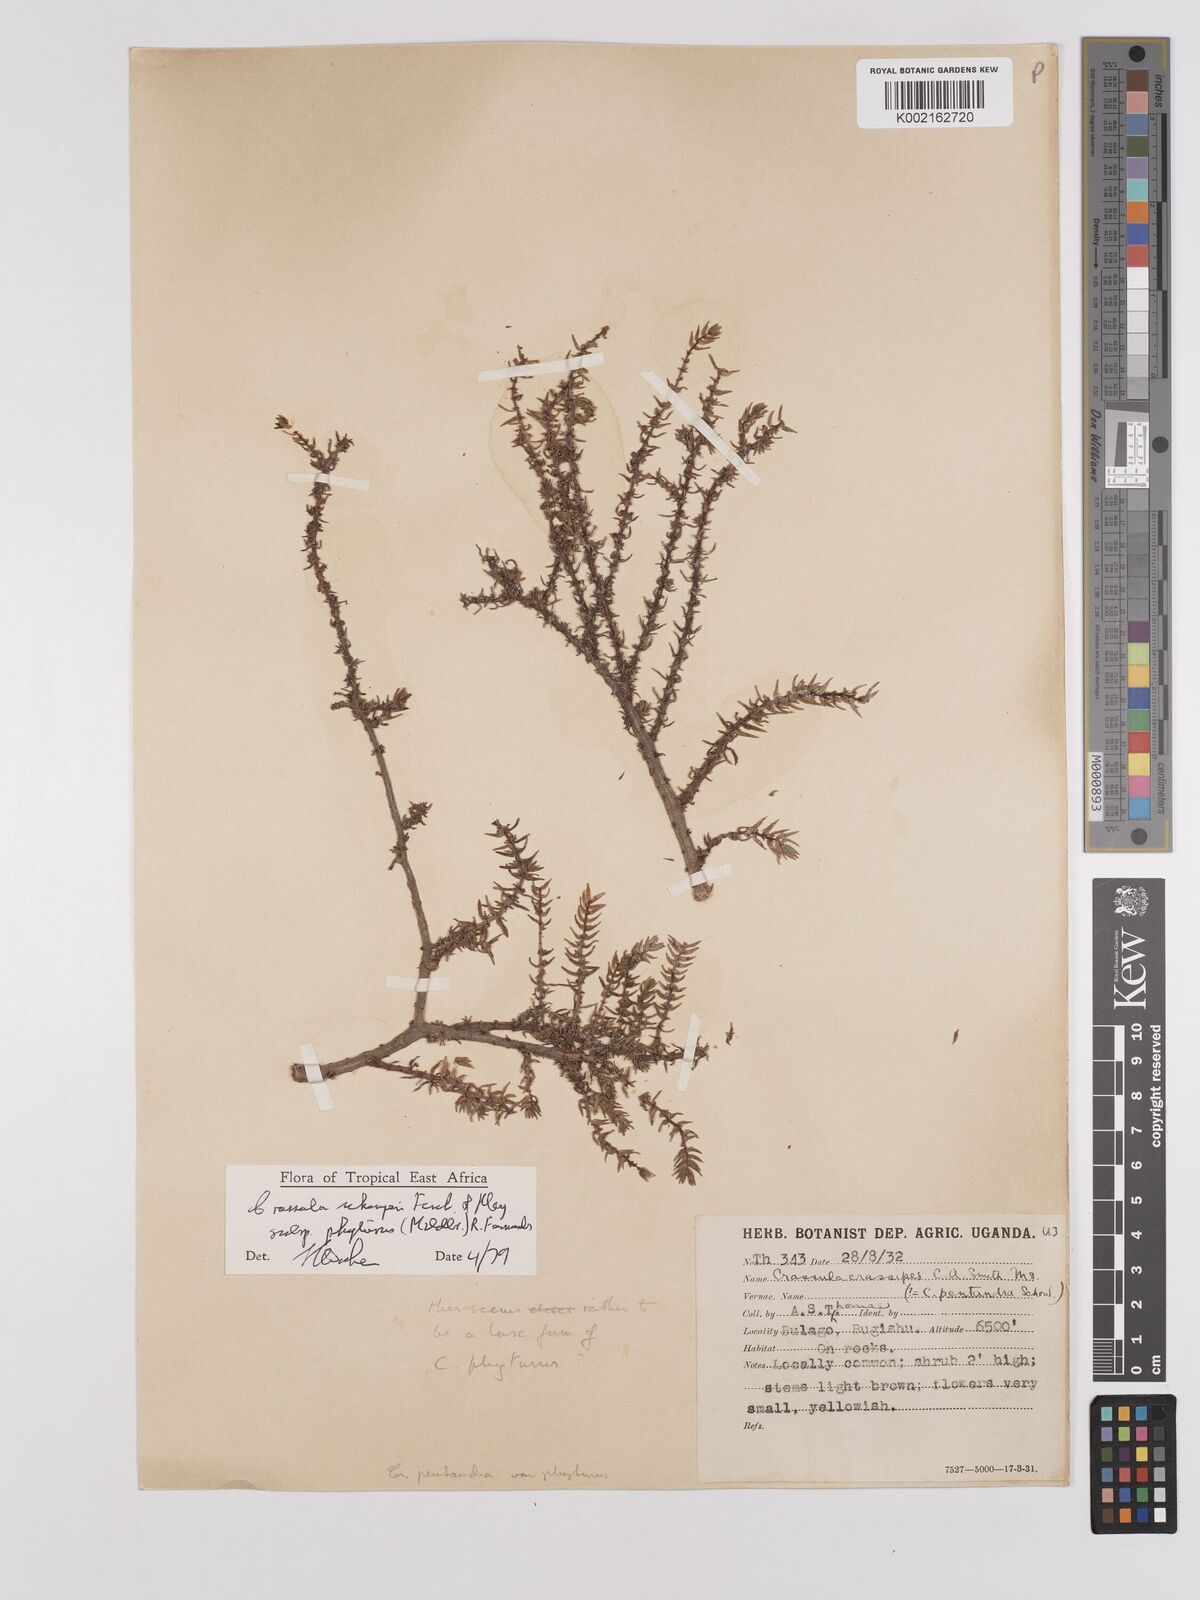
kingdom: Plantae
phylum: Tracheophyta
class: Magnoliopsida
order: Saxifragales
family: Crassulaceae
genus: Crassula
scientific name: Crassula schimperi
